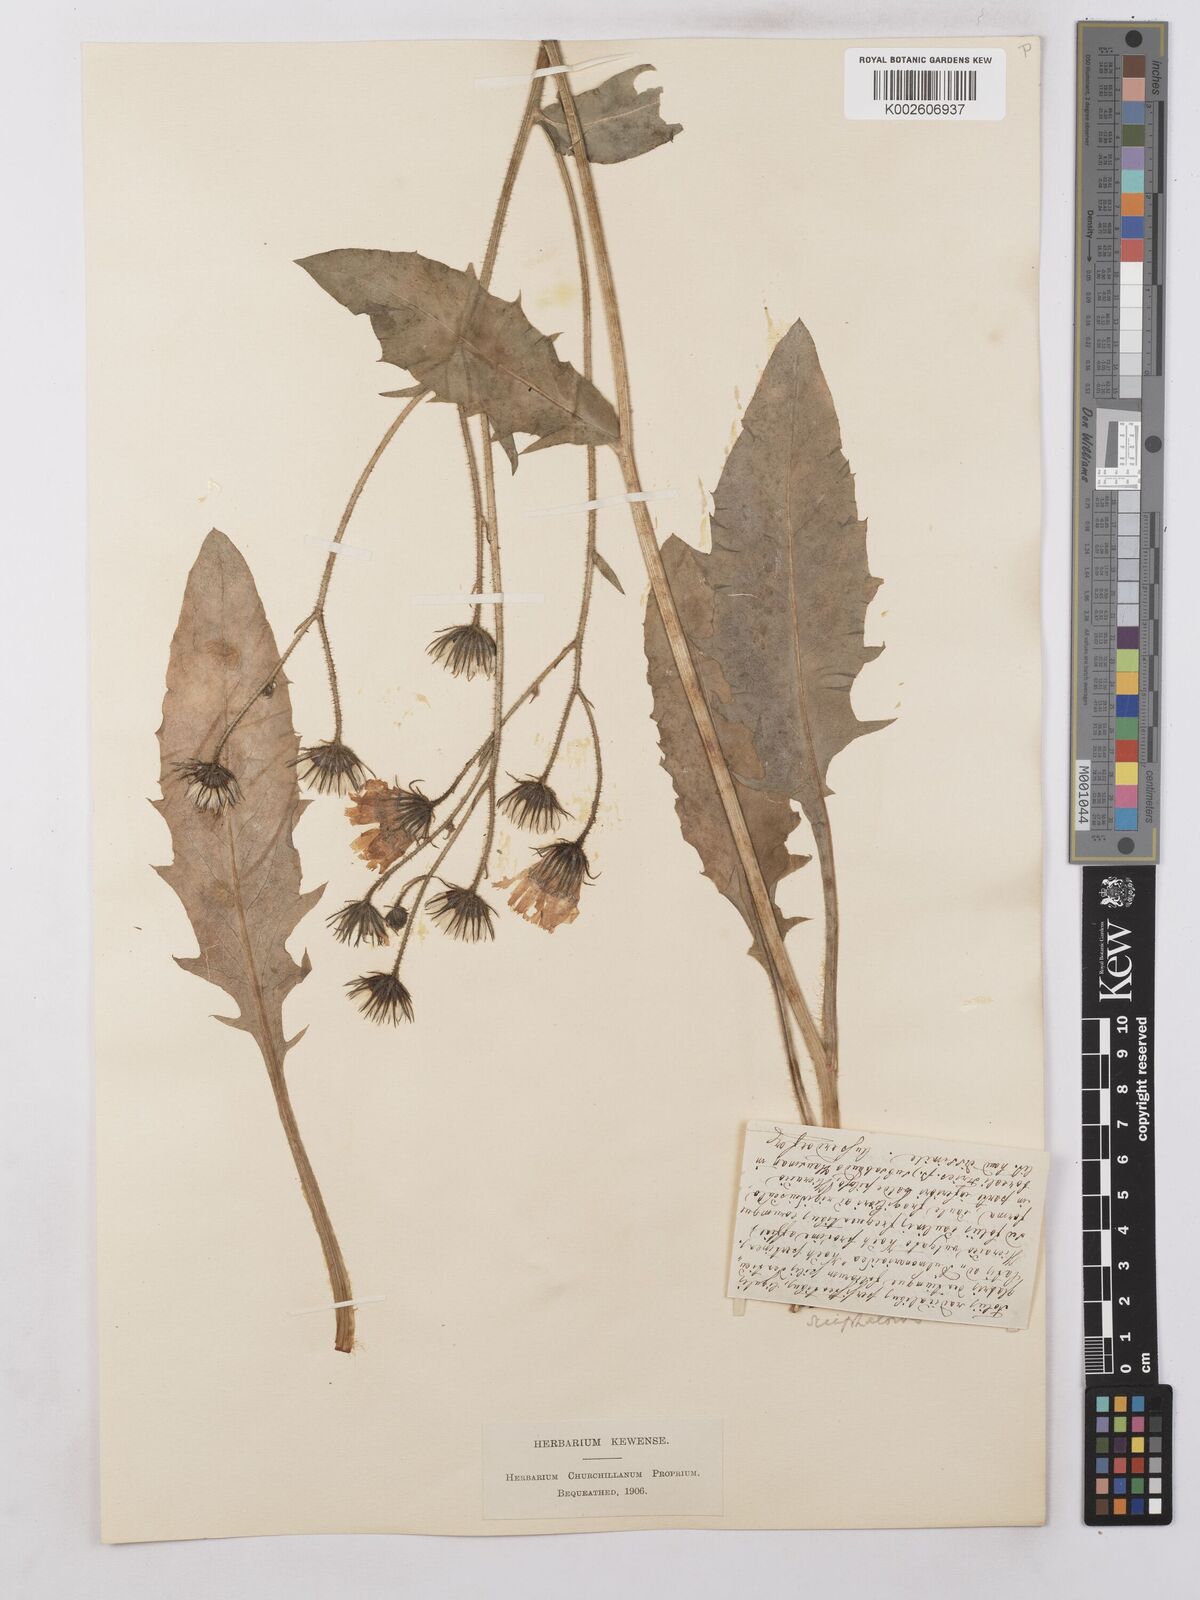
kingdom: Plantae
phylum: Tracheophyta
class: Magnoliopsida
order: Asterales
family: Asteraceae
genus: Hieracium
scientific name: Hieracium benzianum
